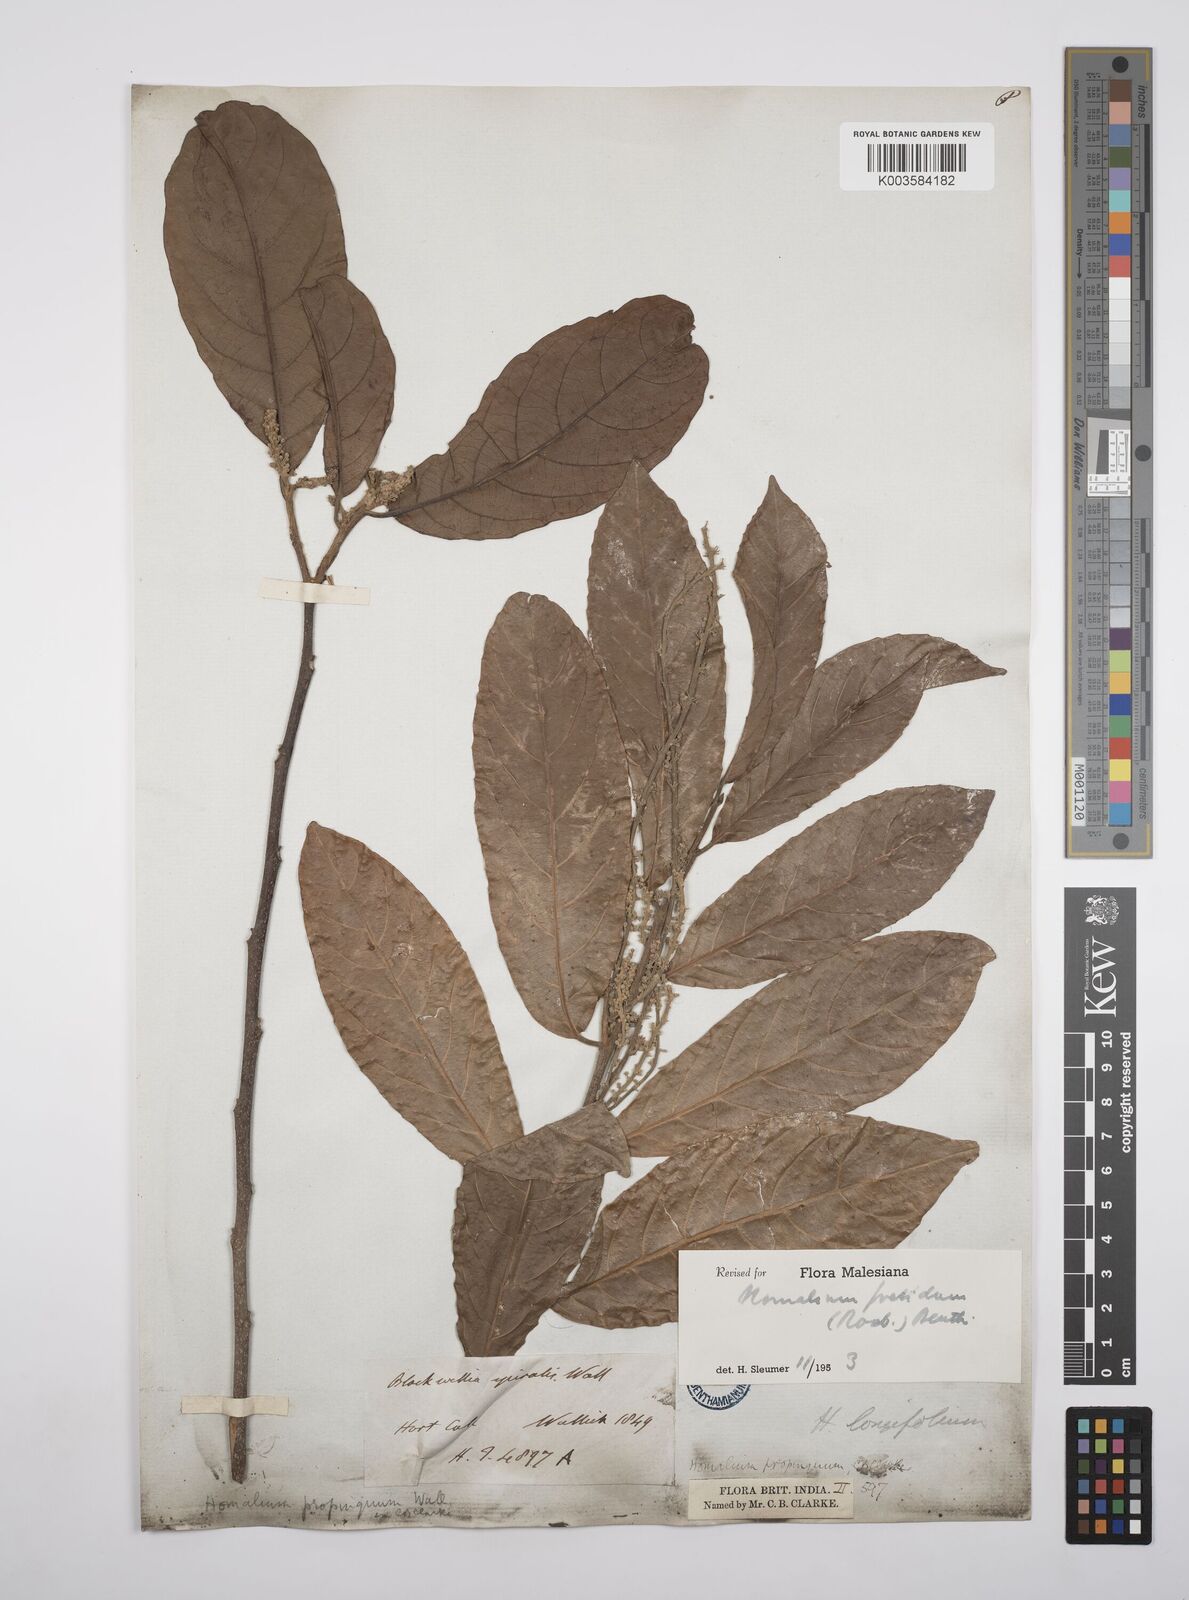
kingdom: Plantae
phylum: Tracheophyta
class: Magnoliopsida
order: Malpighiales
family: Salicaceae
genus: Homalium
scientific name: Homalium foetidum
